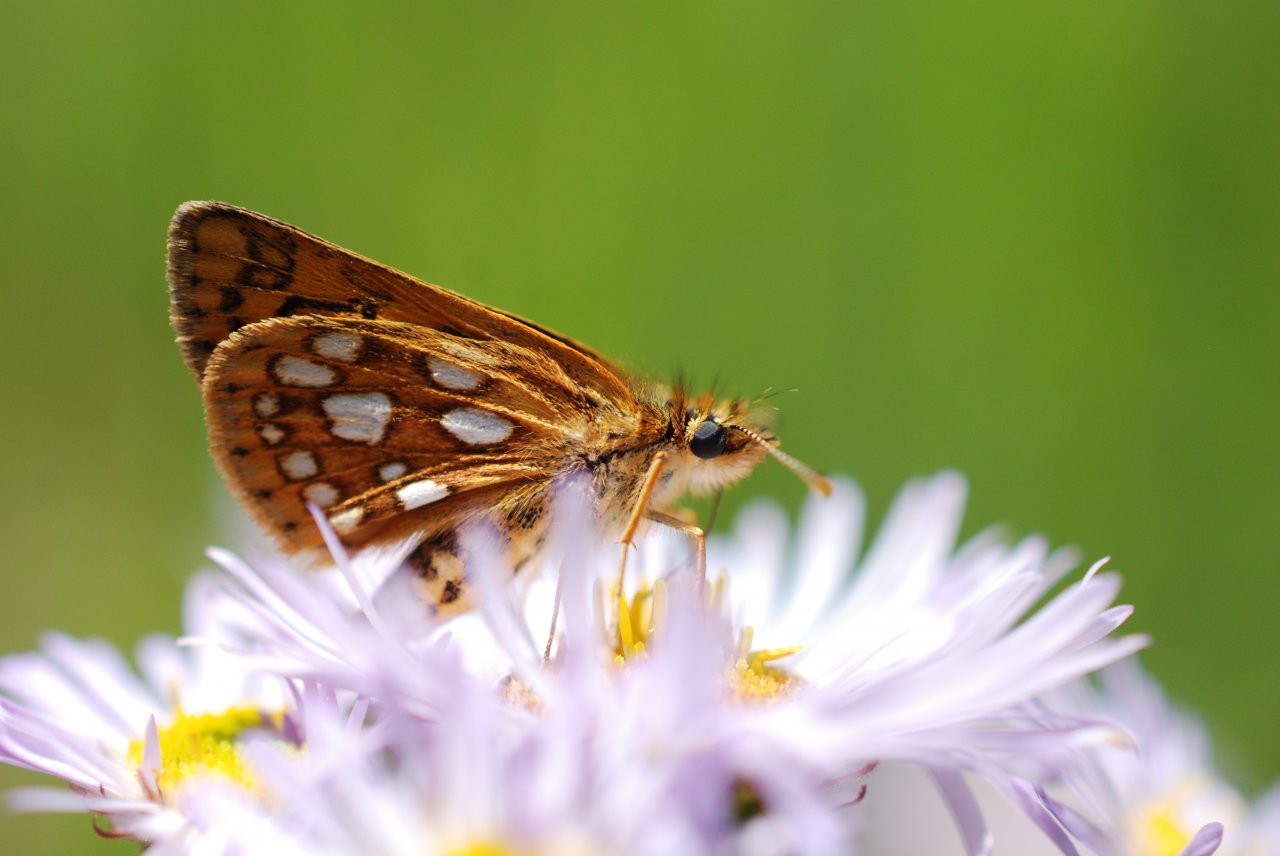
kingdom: Animalia
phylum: Arthropoda
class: Insecta
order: Lepidoptera
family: Hesperiidae
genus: Carterocephalus
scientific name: Carterocephalus palaemon
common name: Chequered Skipper
